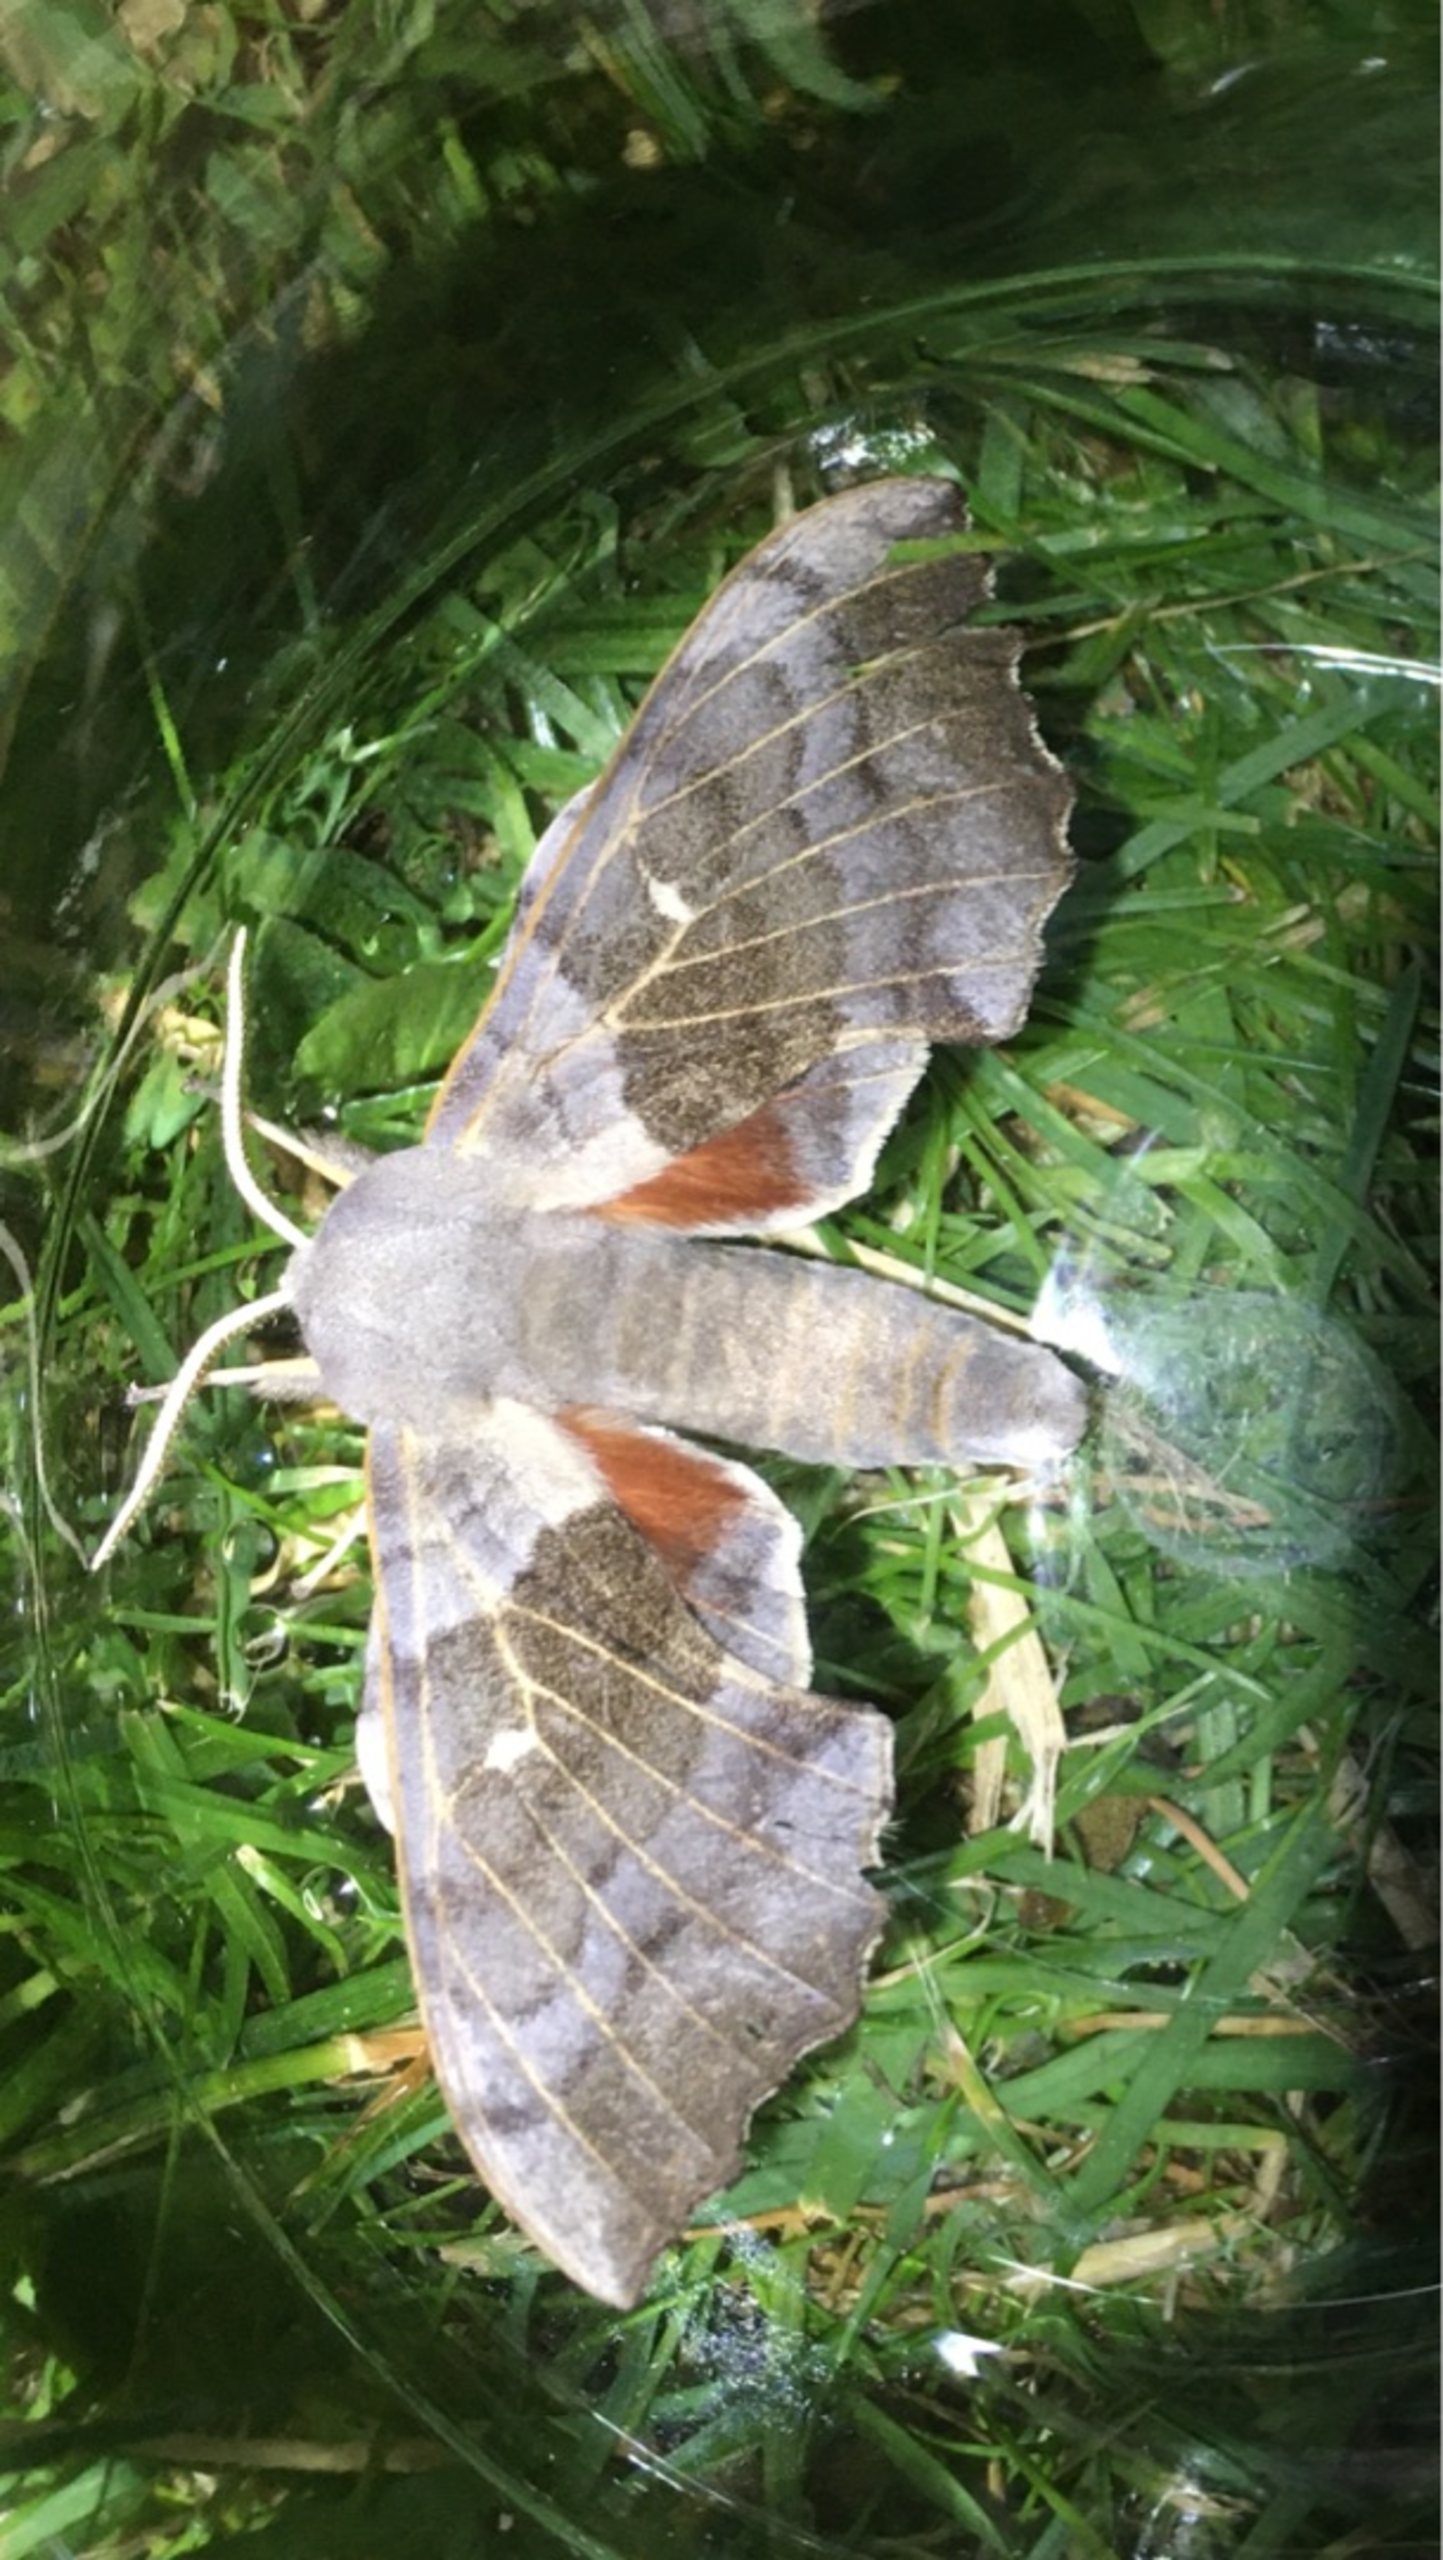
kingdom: Animalia
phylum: Arthropoda
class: Insecta
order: Lepidoptera
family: Sphingidae
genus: Laothoe
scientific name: Laothoe populi
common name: Poppelsværmer
